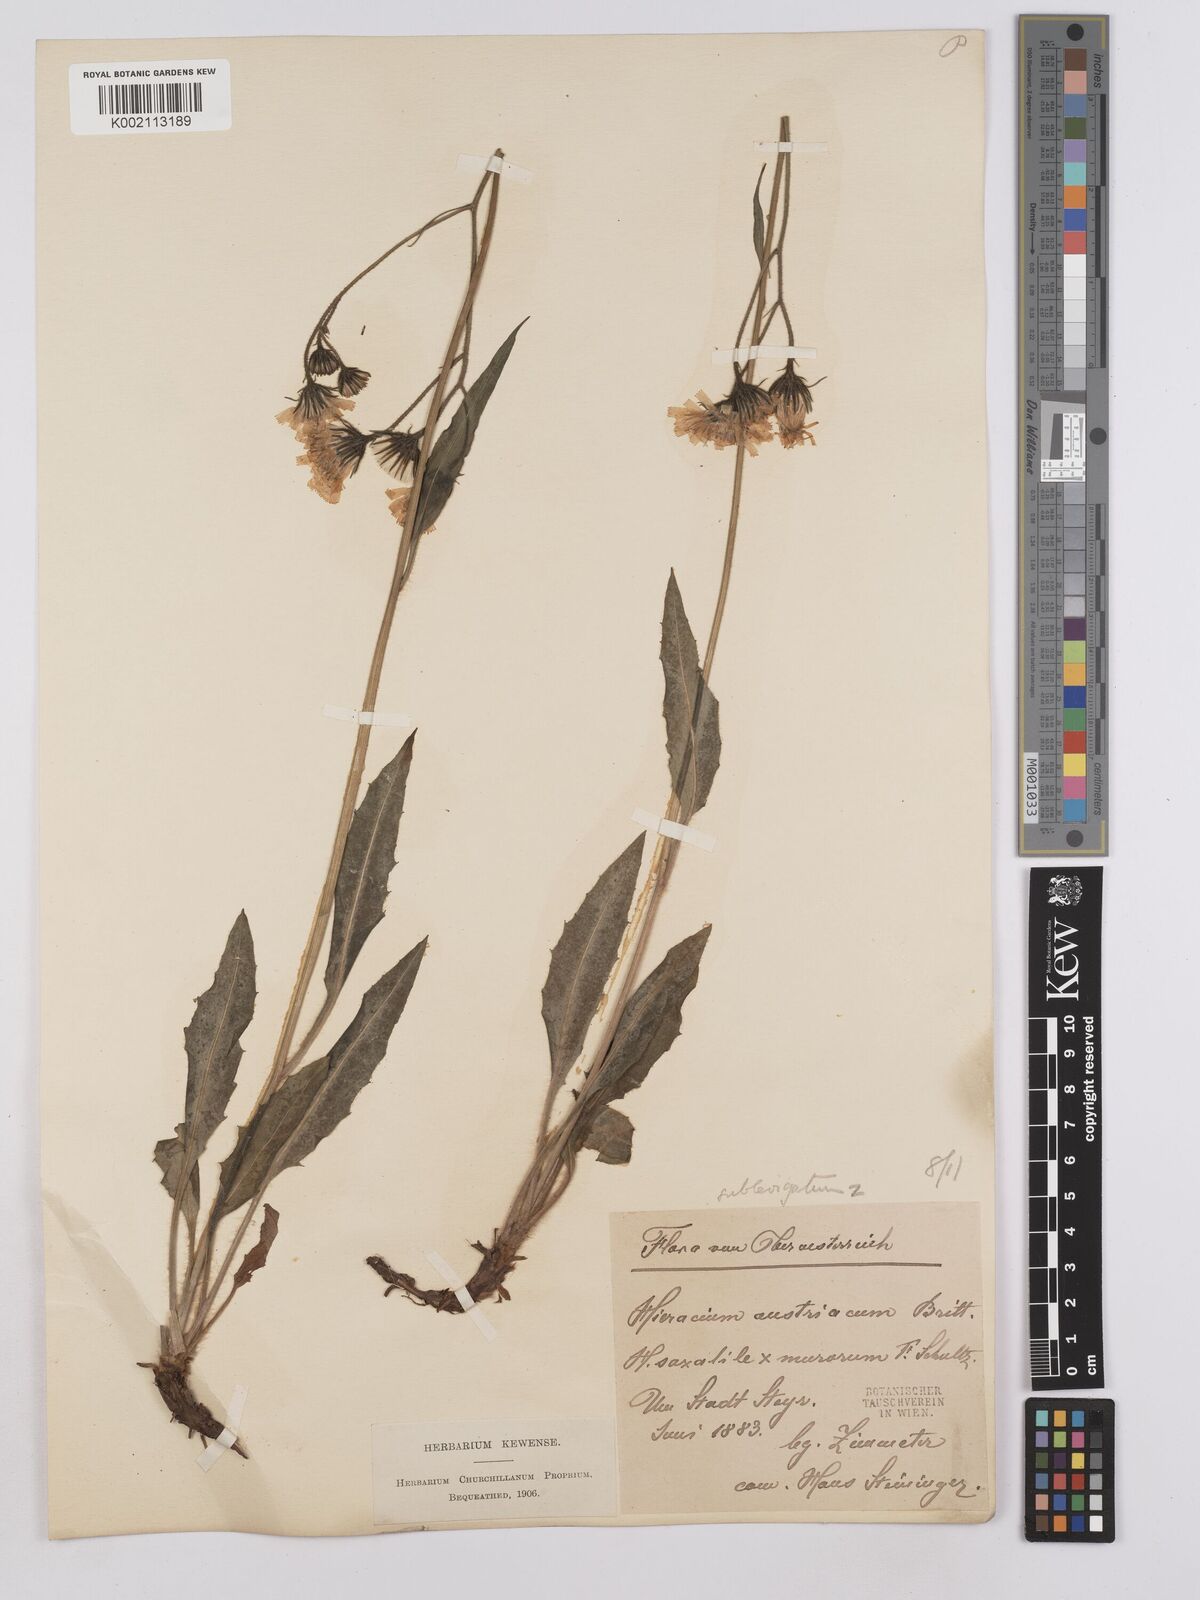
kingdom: Plantae
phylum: Tracheophyta
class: Magnoliopsida
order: Asterales
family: Asteraceae
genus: Crepis
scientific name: Crepis blattarioides
